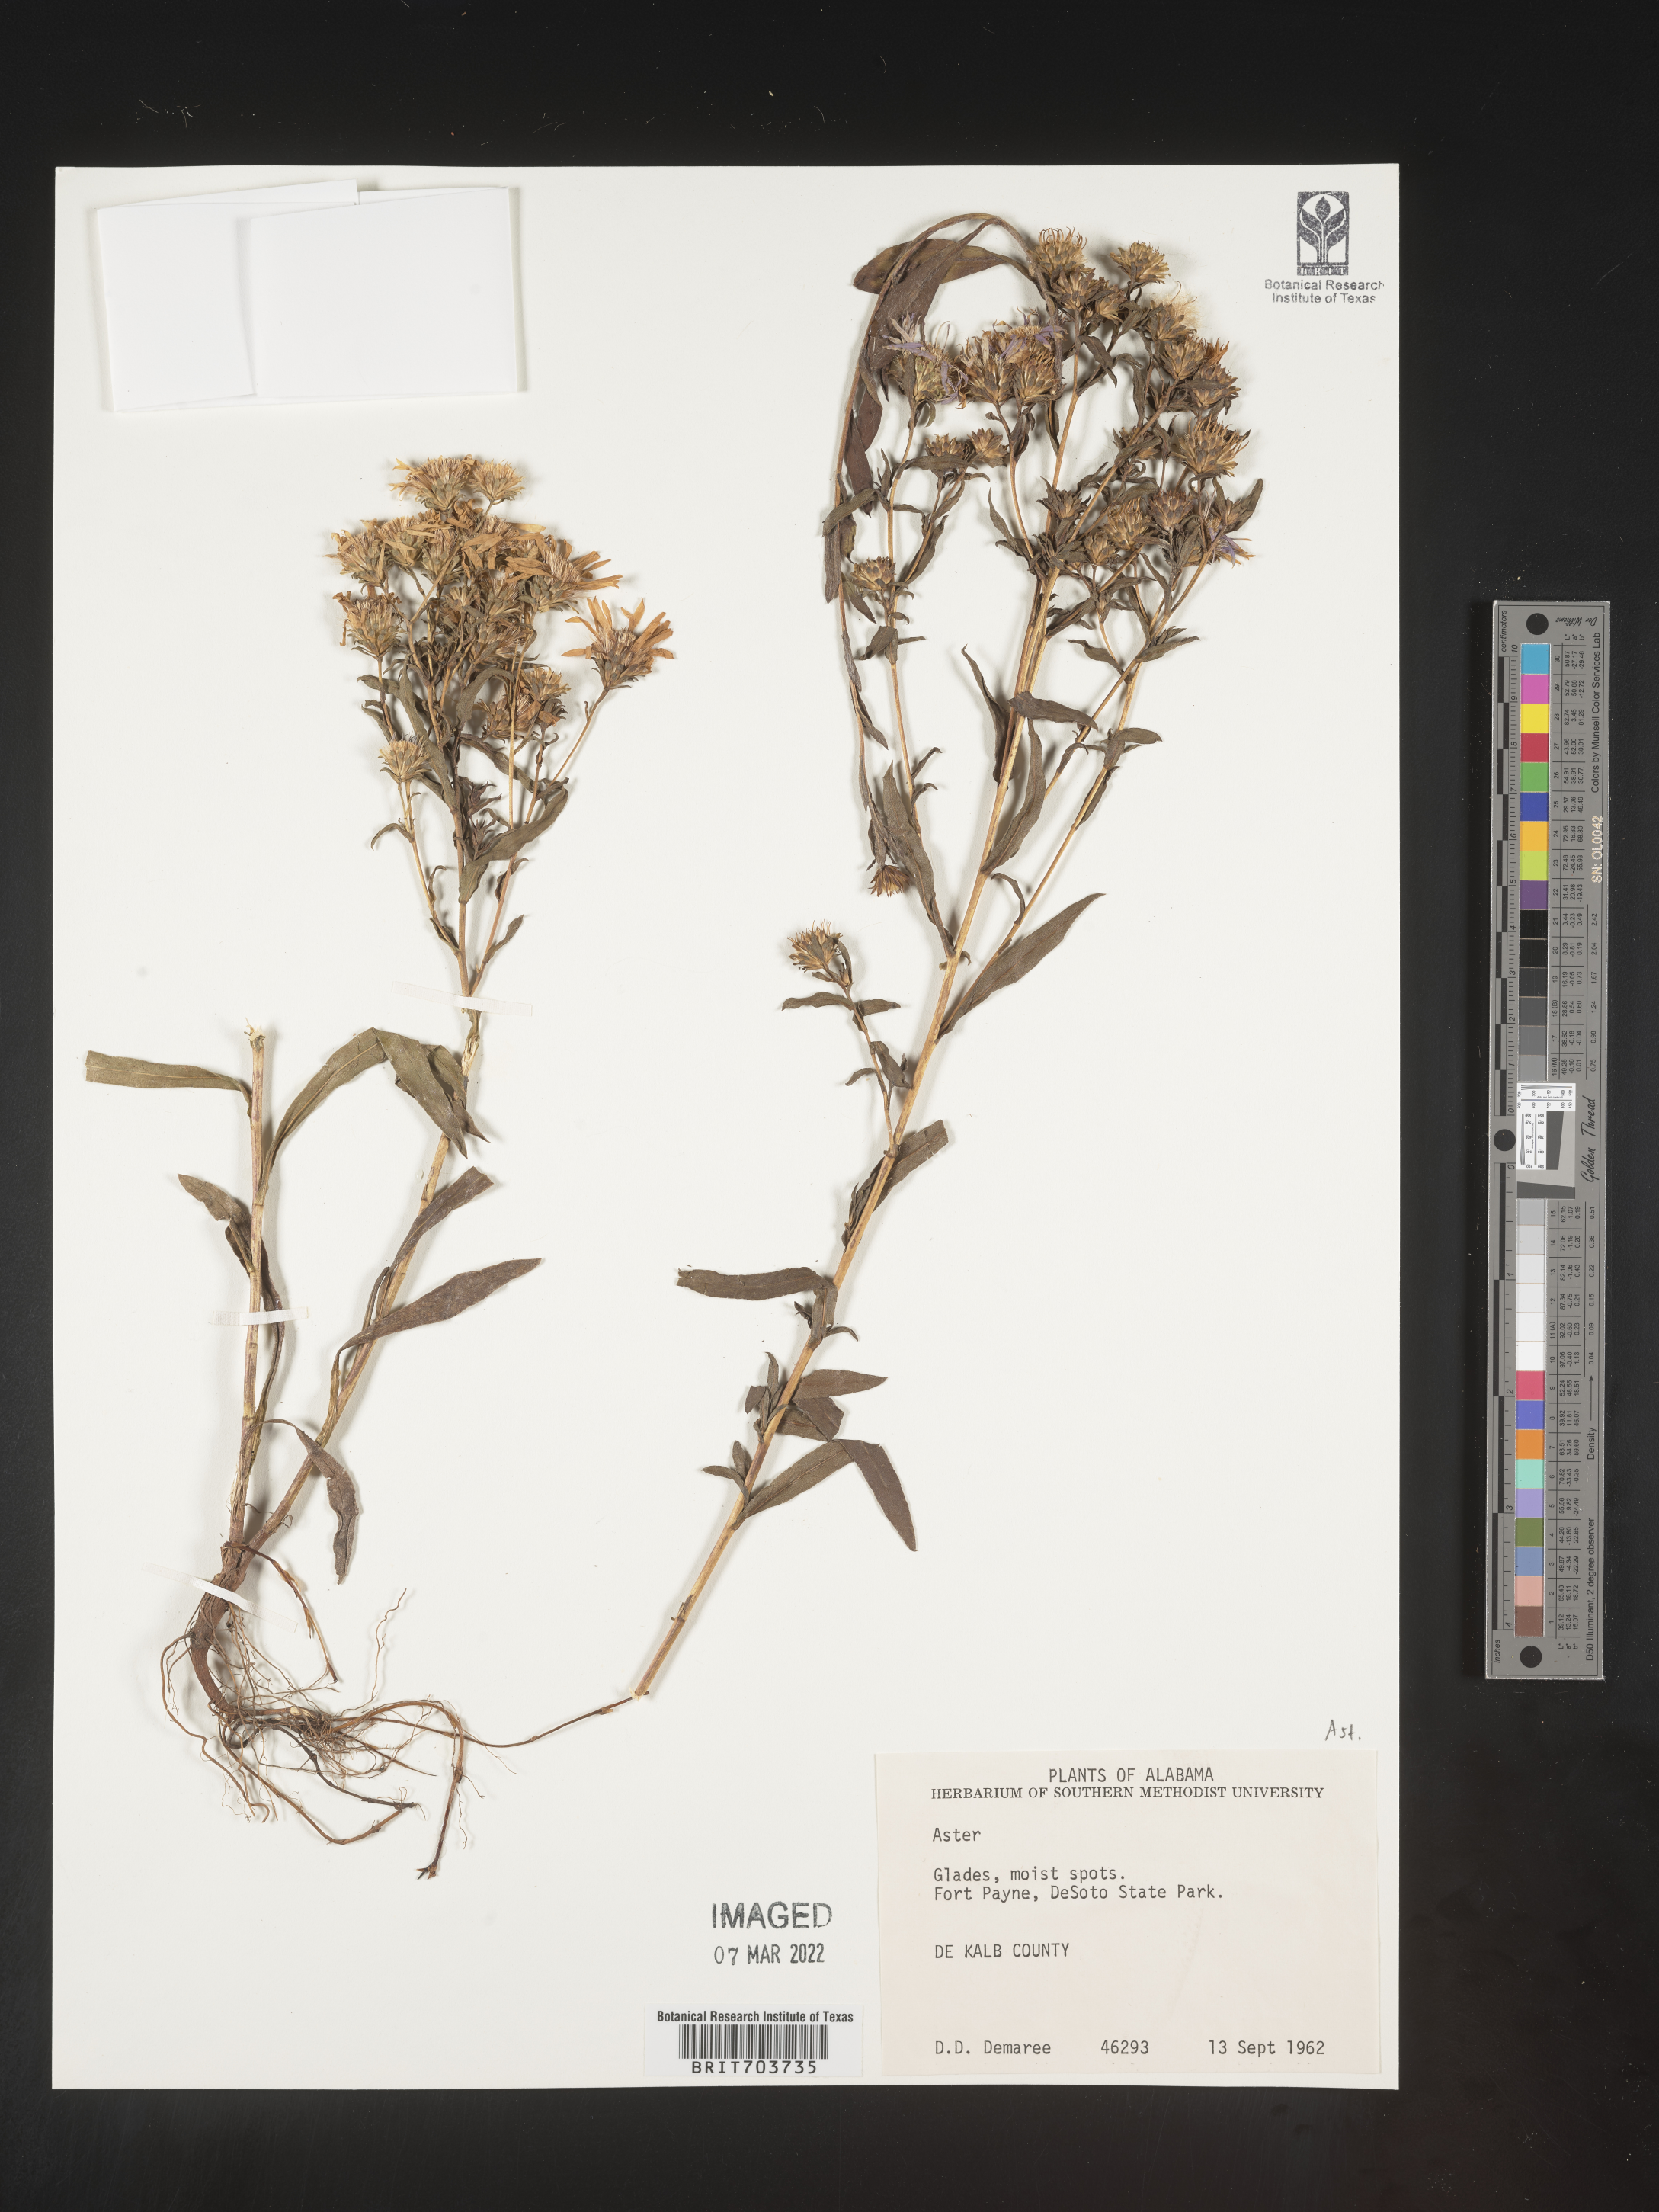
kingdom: Plantae
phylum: Tracheophyta
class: Magnoliopsida
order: Asterales
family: Asteraceae
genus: Eurybia
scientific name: Eurybia
